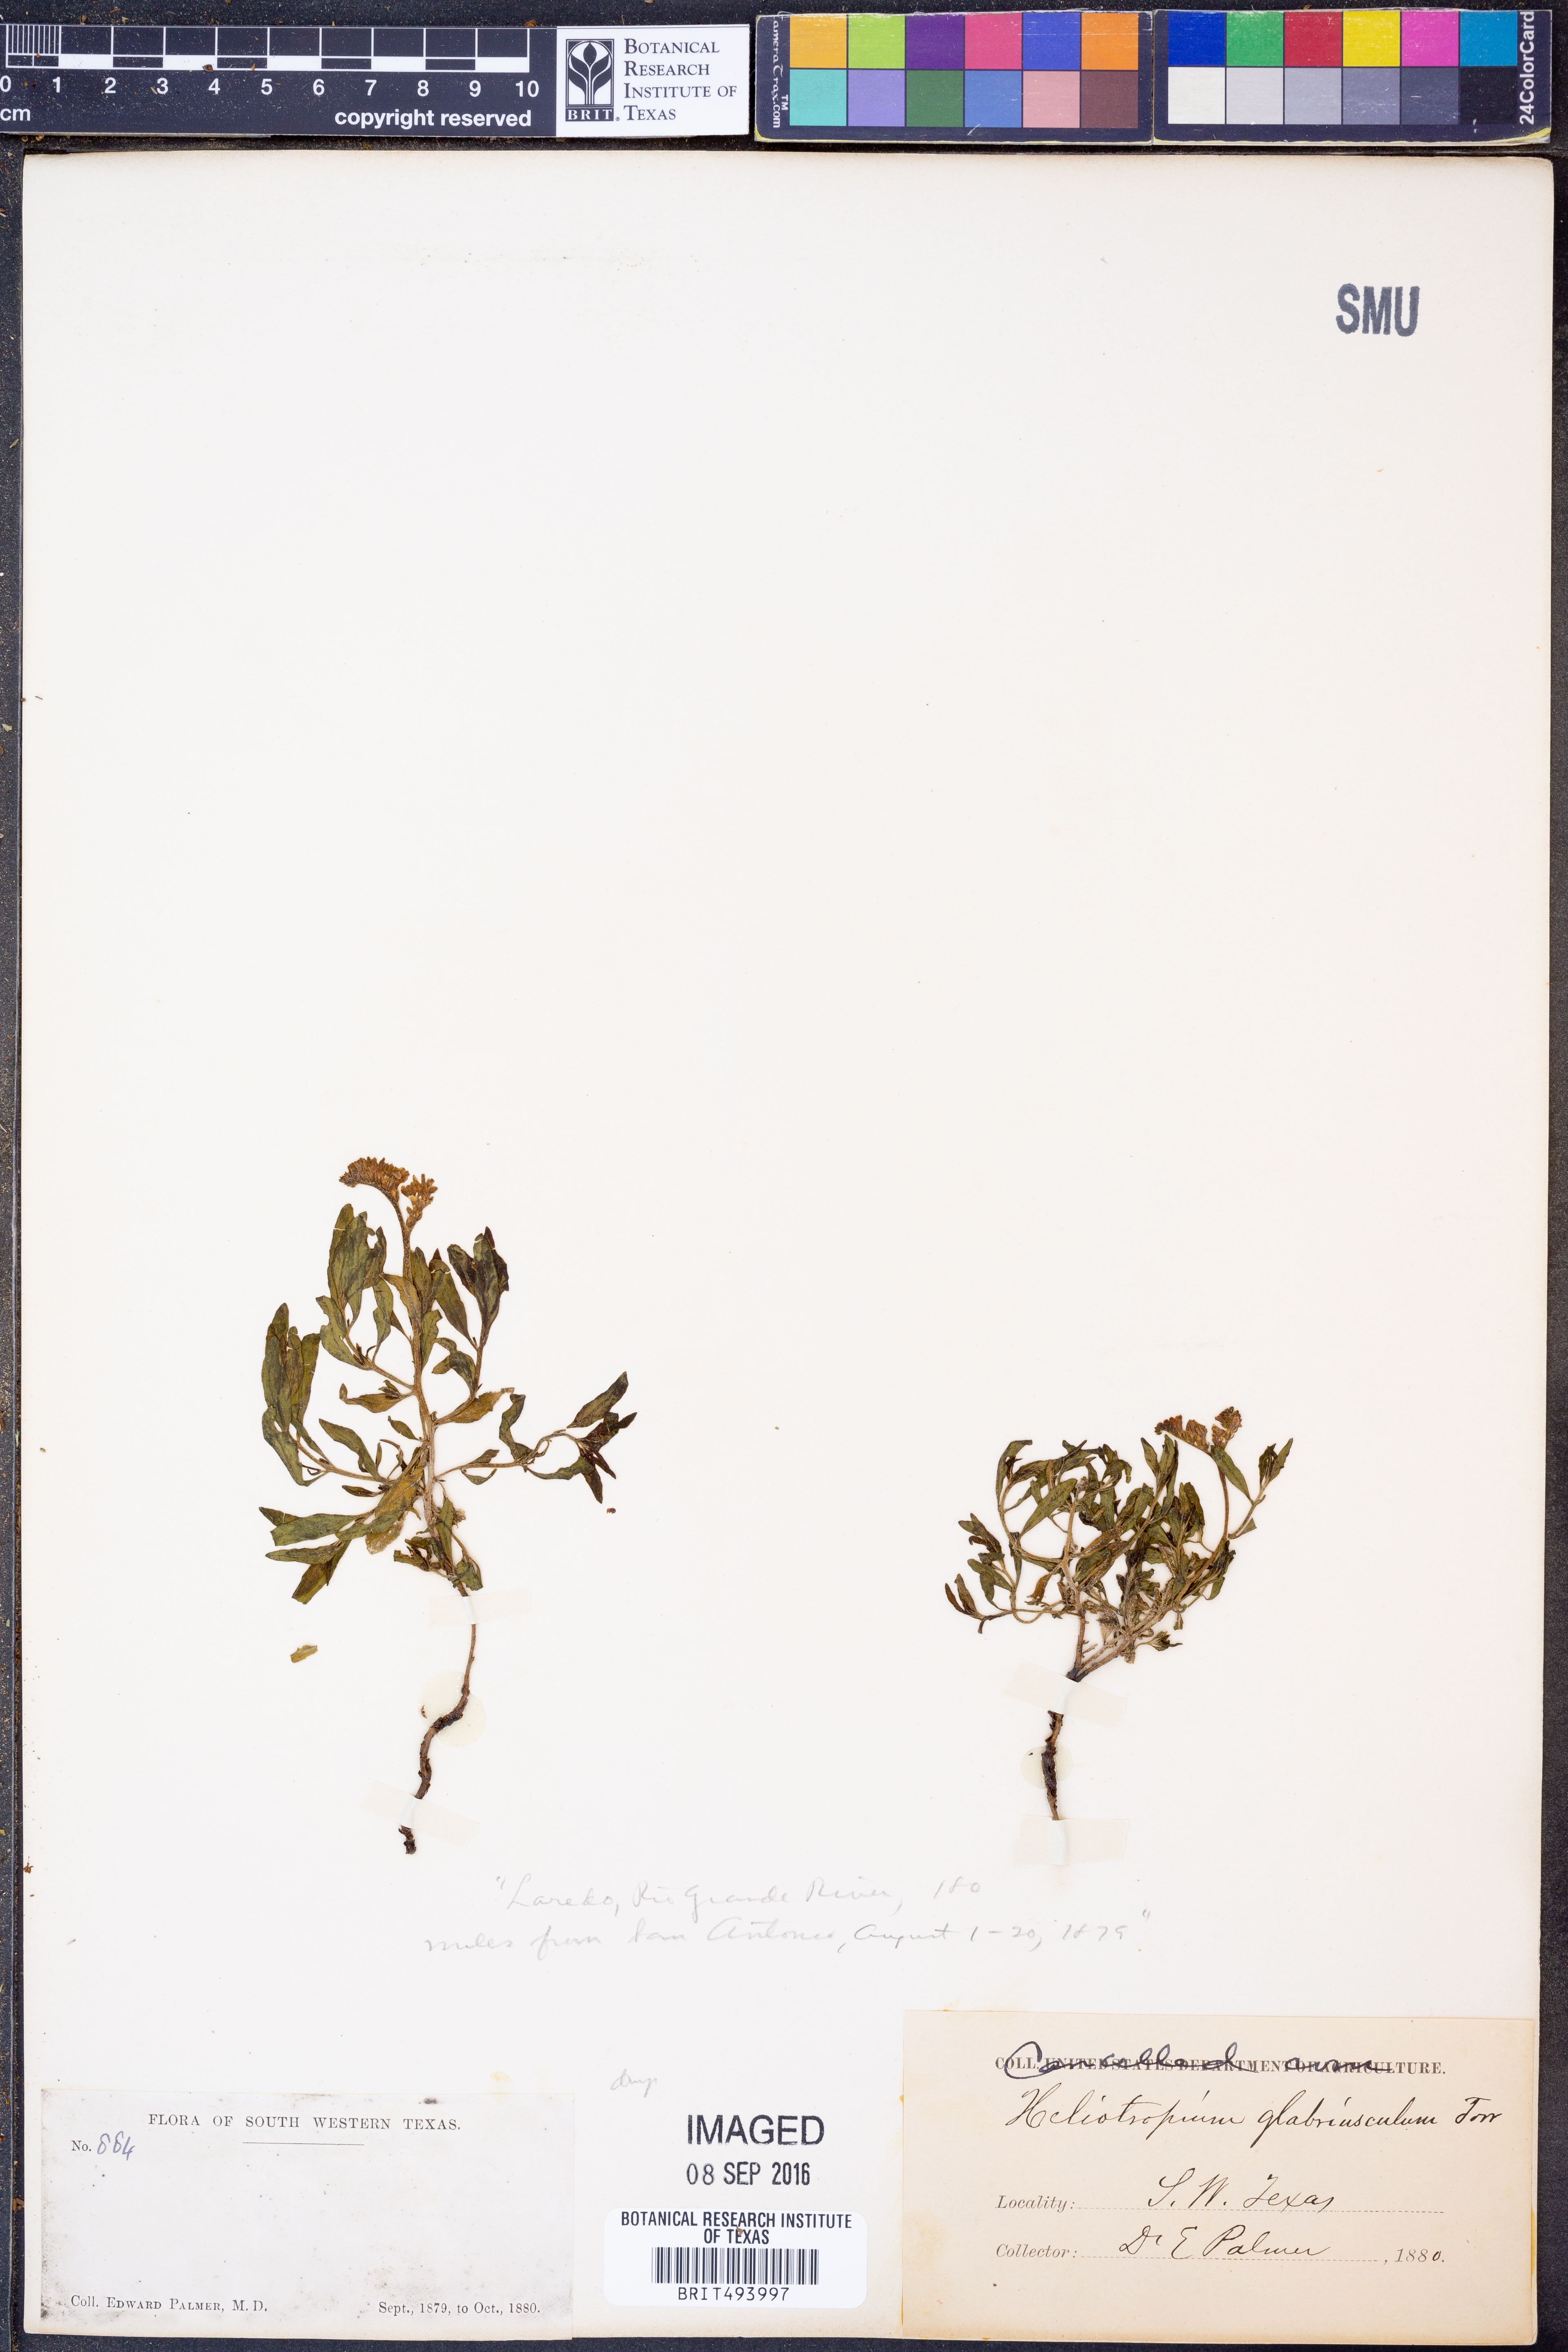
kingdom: Plantae
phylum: Tracheophyta
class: Magnoliopsida
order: Boraginales
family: Heliotropiaceae
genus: Heliotropium
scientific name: Heliotropium glabriusculum
